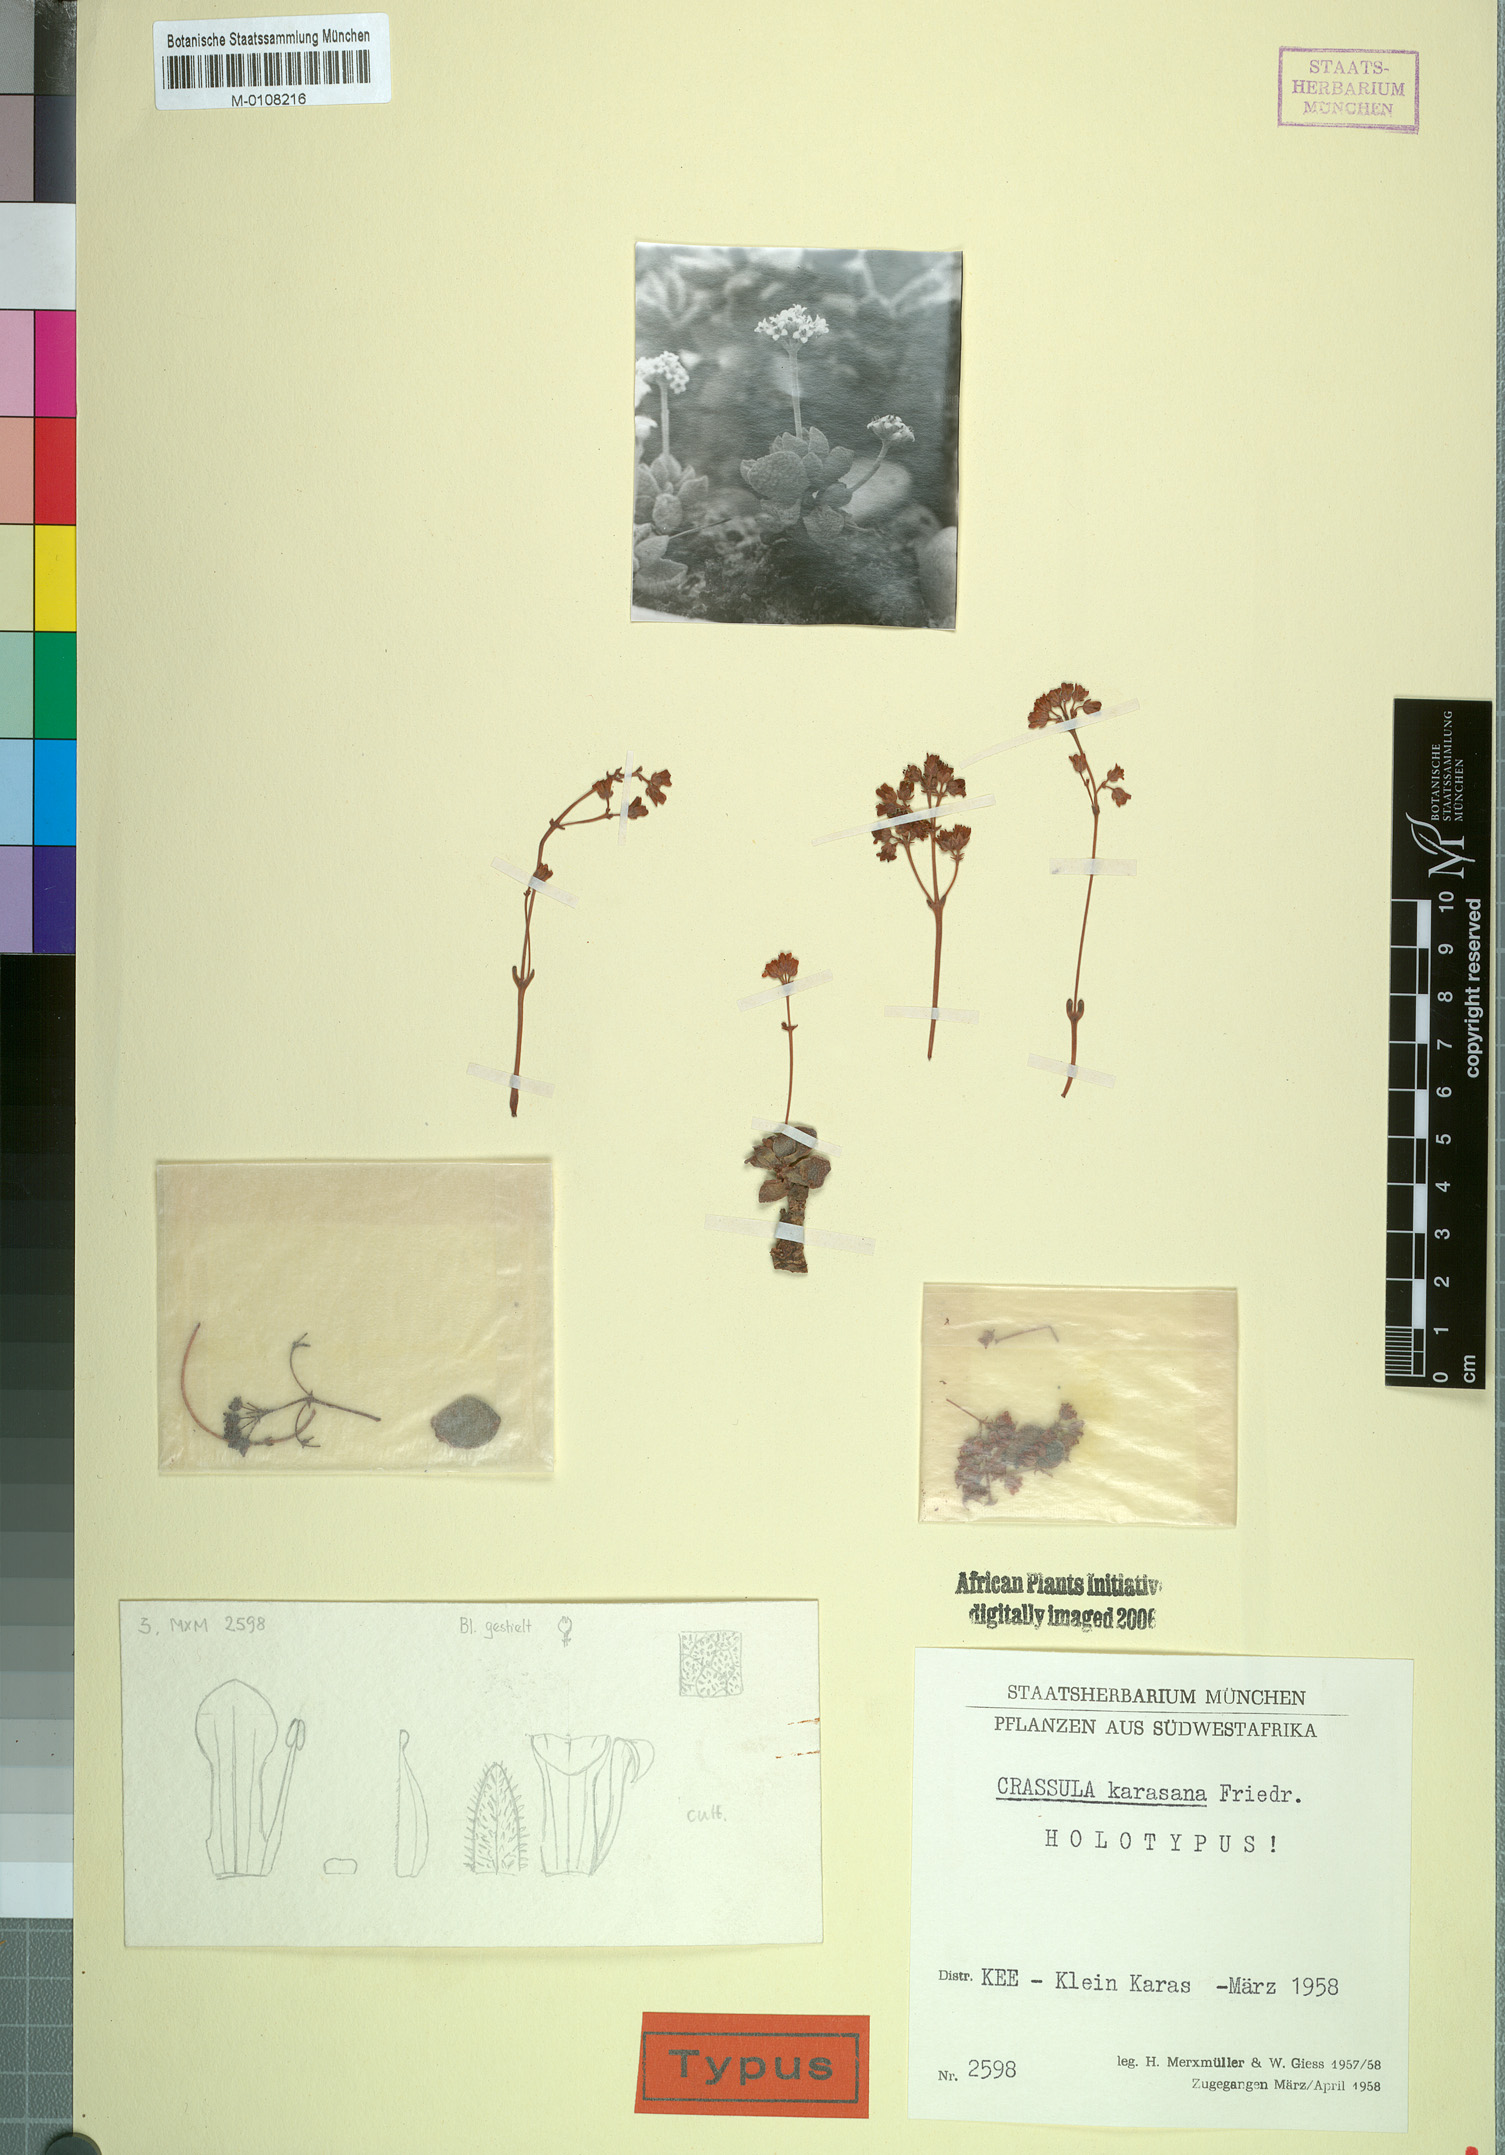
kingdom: Plantae
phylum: Tracheophyta
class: Magnoliopsida
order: Saxifragales
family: Crassulaceae
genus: Crassula
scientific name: Crassula ausensis
